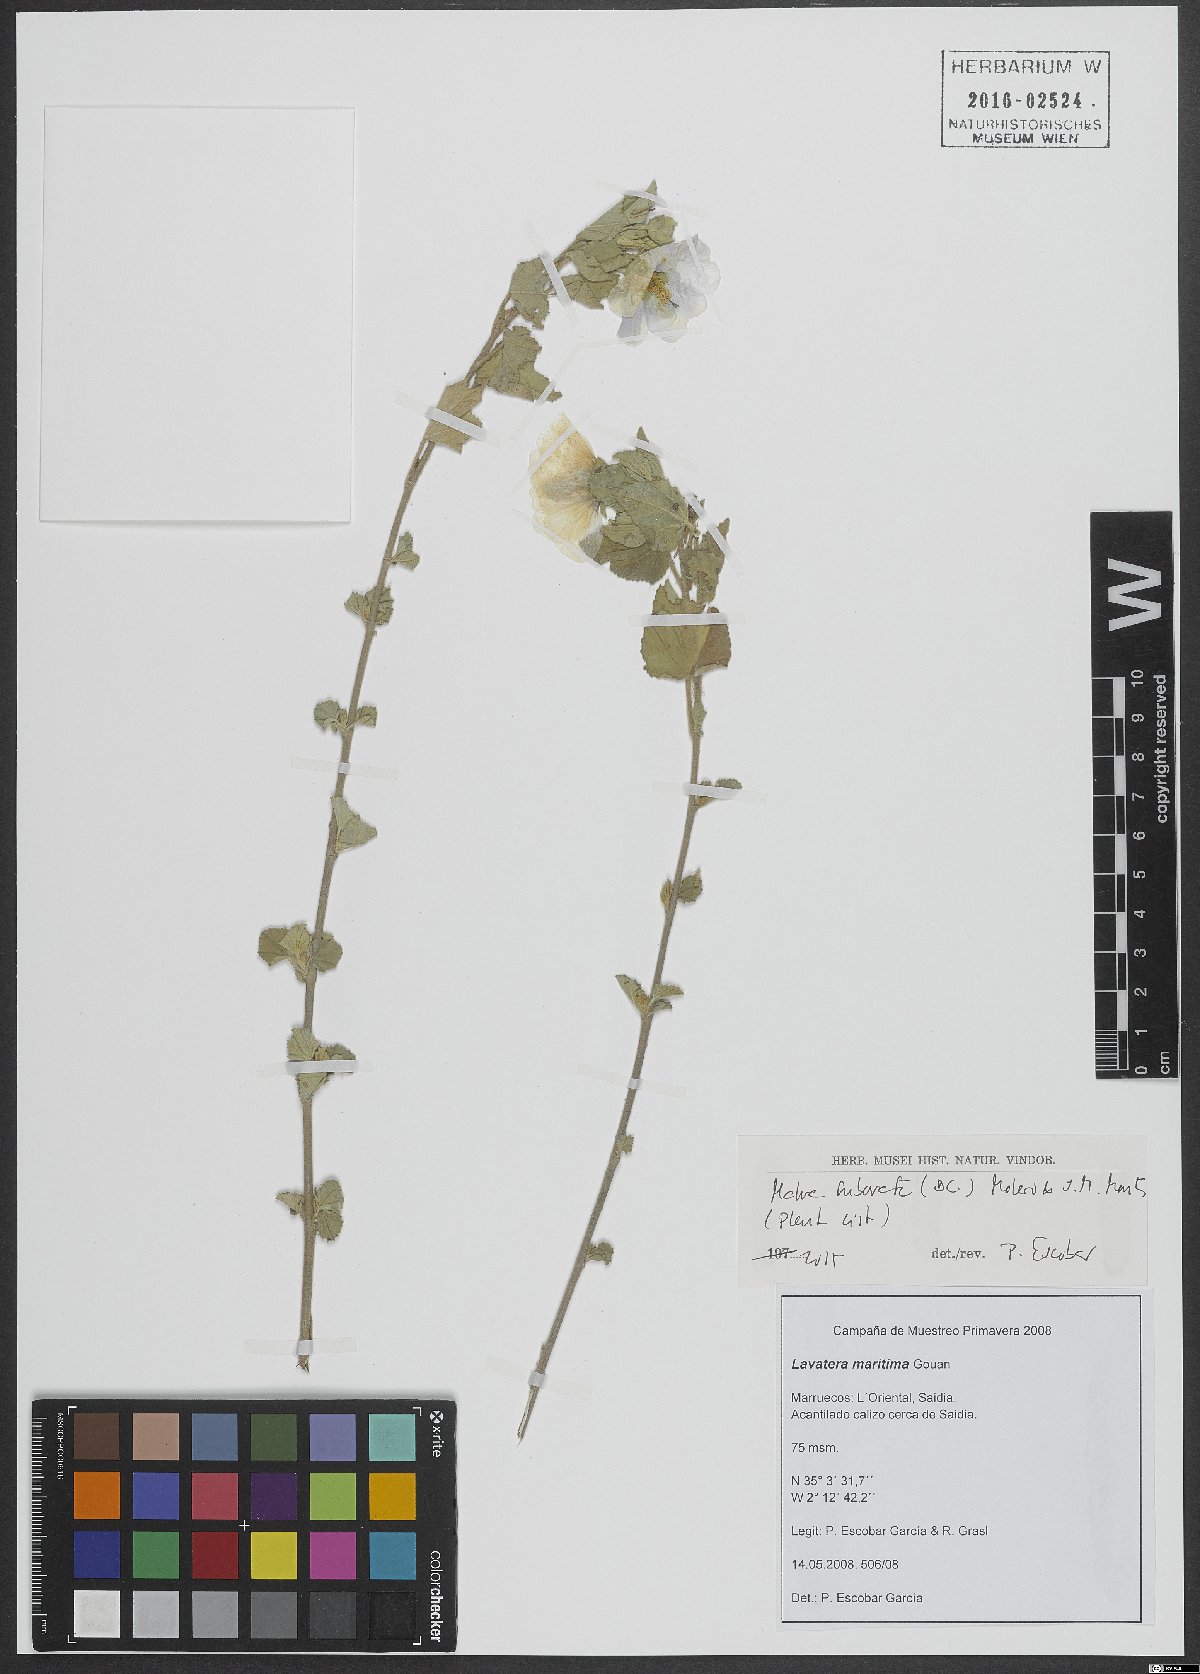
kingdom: Plantae
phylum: Tracheophyta
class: Magnoliopsida
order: Malvales
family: Malvaceae
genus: Malva
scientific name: Malva subovata
